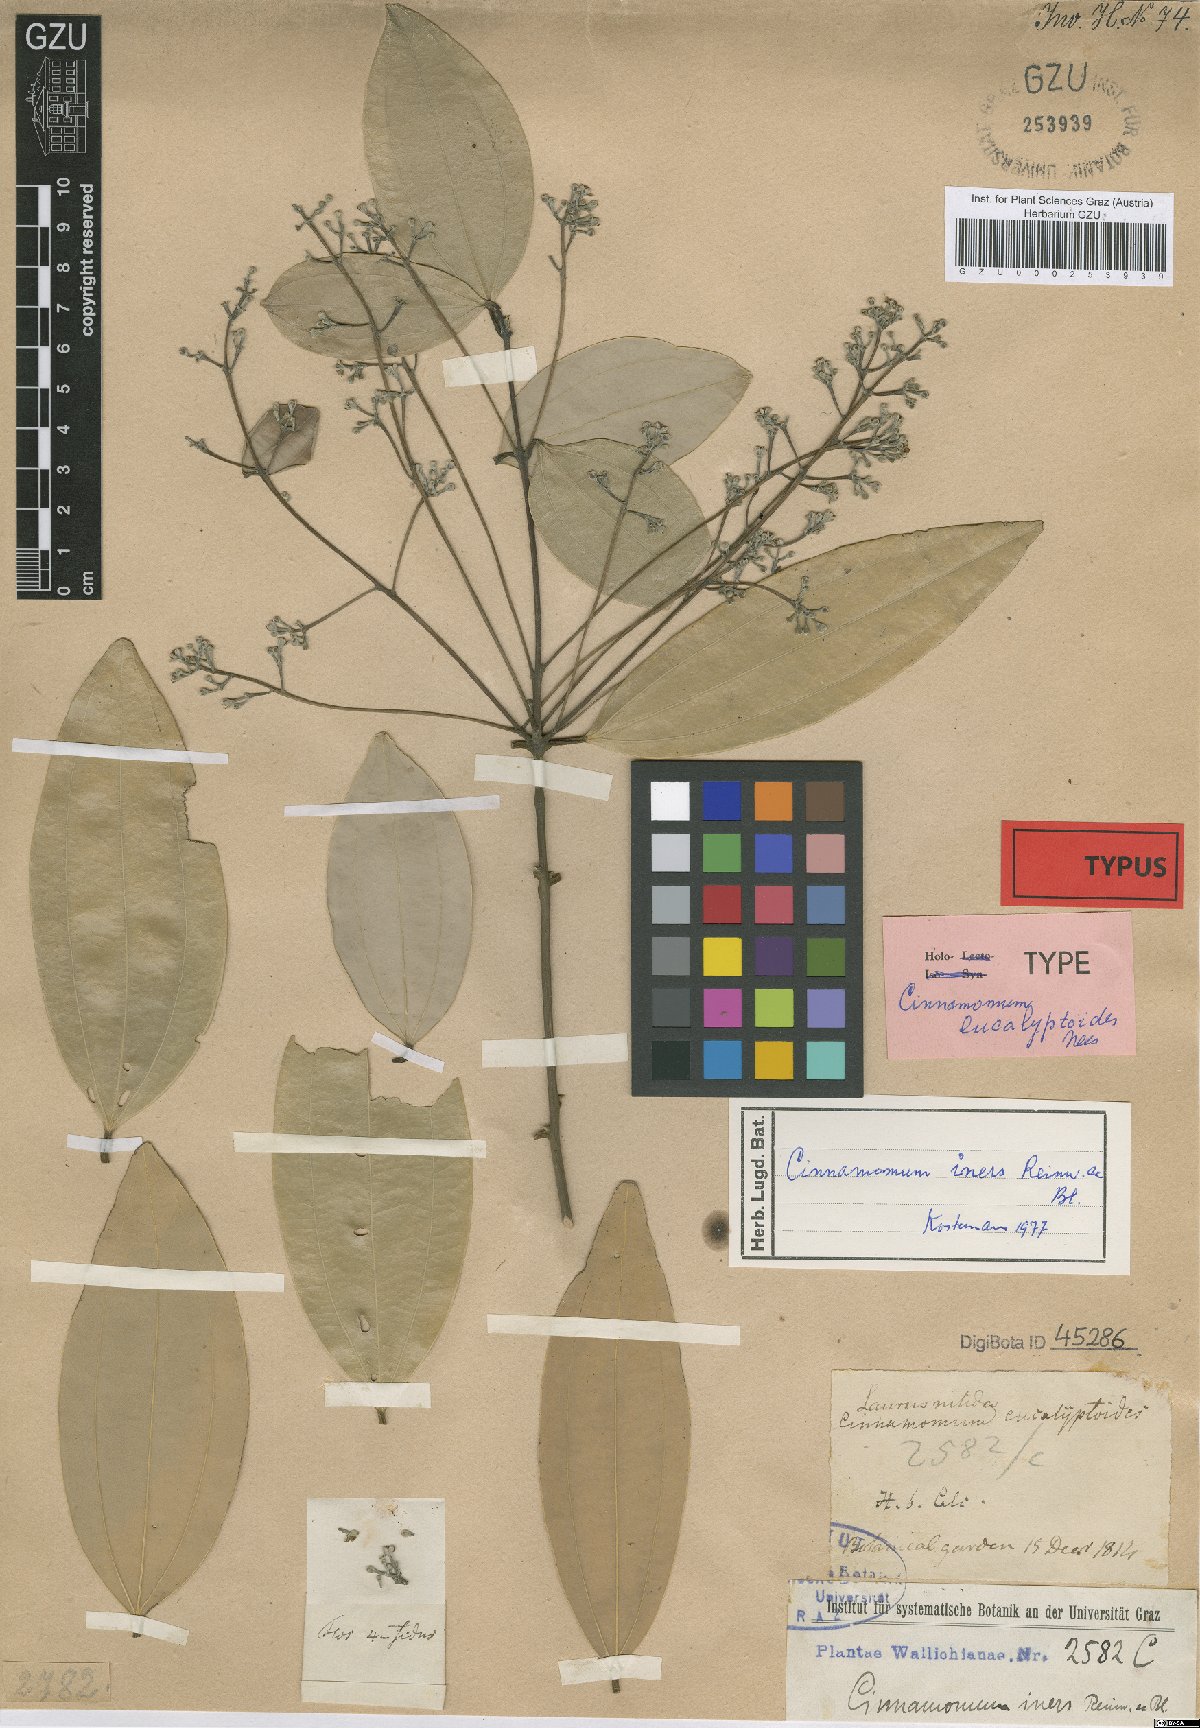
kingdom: Plantae
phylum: Tracheophyta
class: Magnoliopsida
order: Laurales
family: Lauraceae
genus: Cinnamomum
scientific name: Cinnamomum iners
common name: Wild cinnamon
